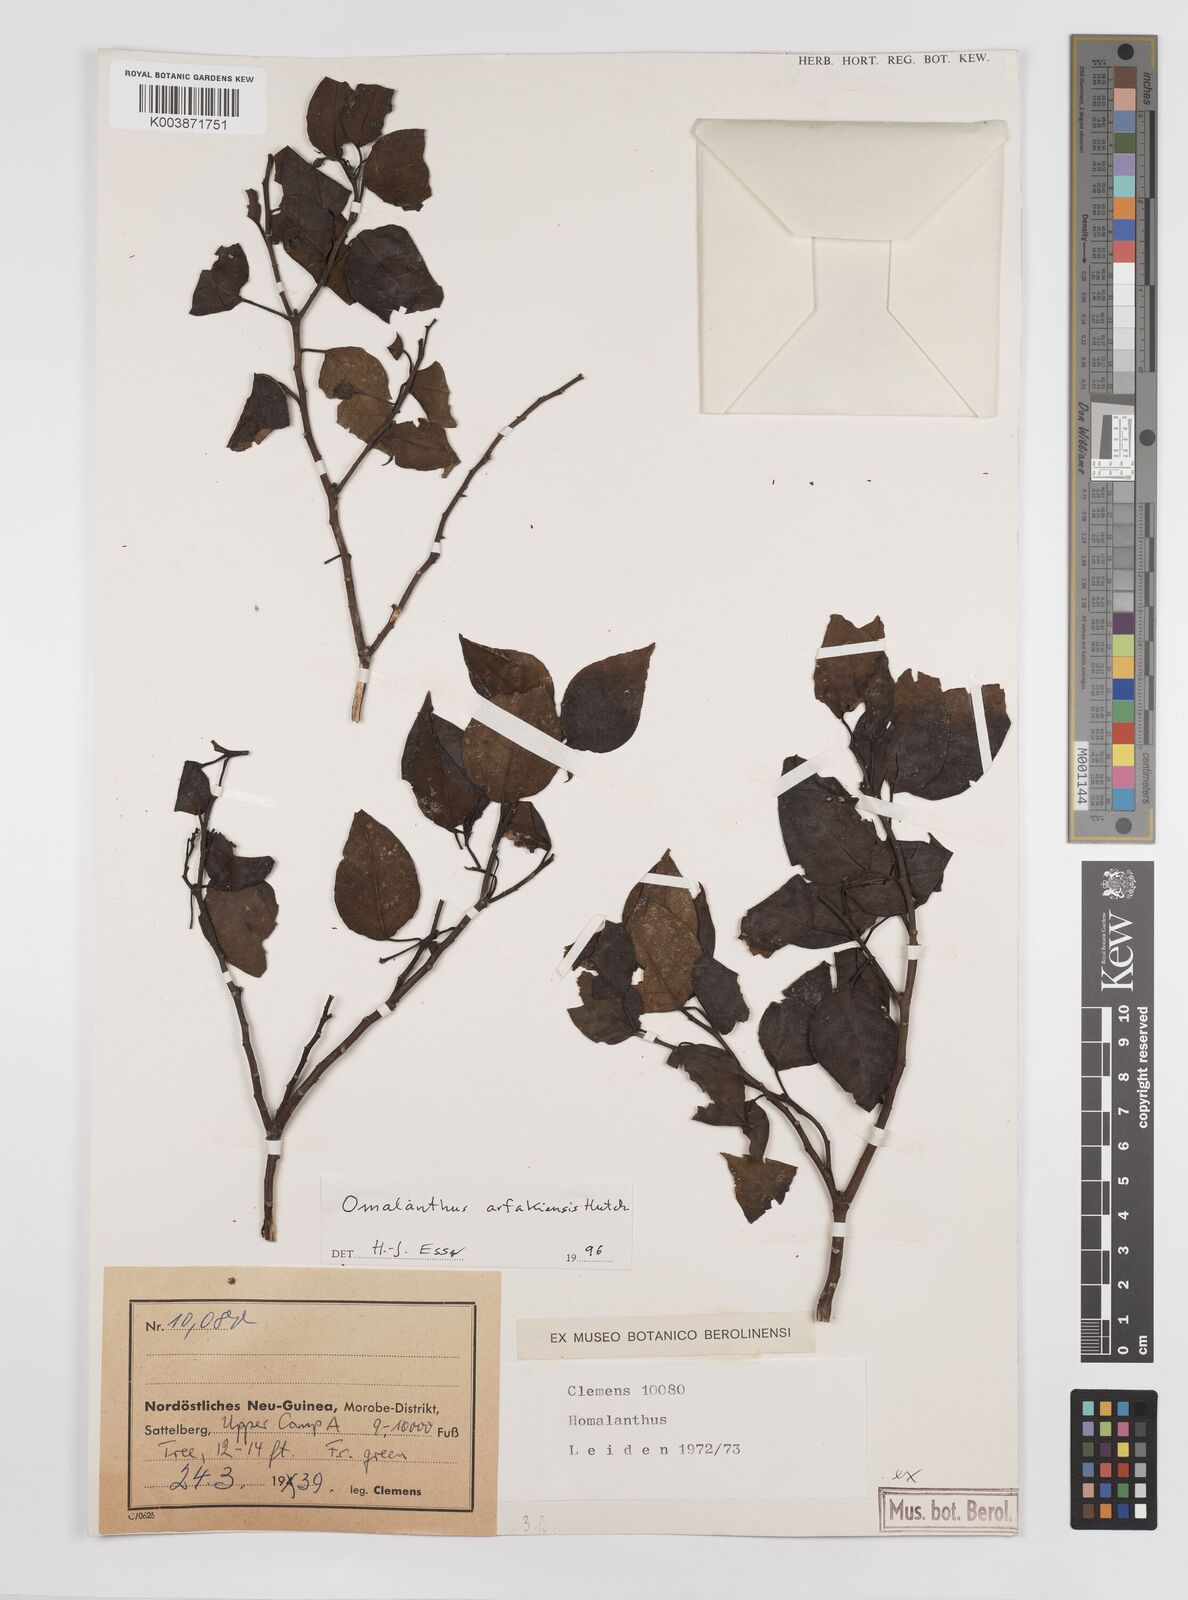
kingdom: Plantae
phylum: Tracheophyta
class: Magnoliopsida
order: Malpighiales
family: Euphorbiaceae
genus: Homalanthus
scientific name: Homalanthus arfakiensis
